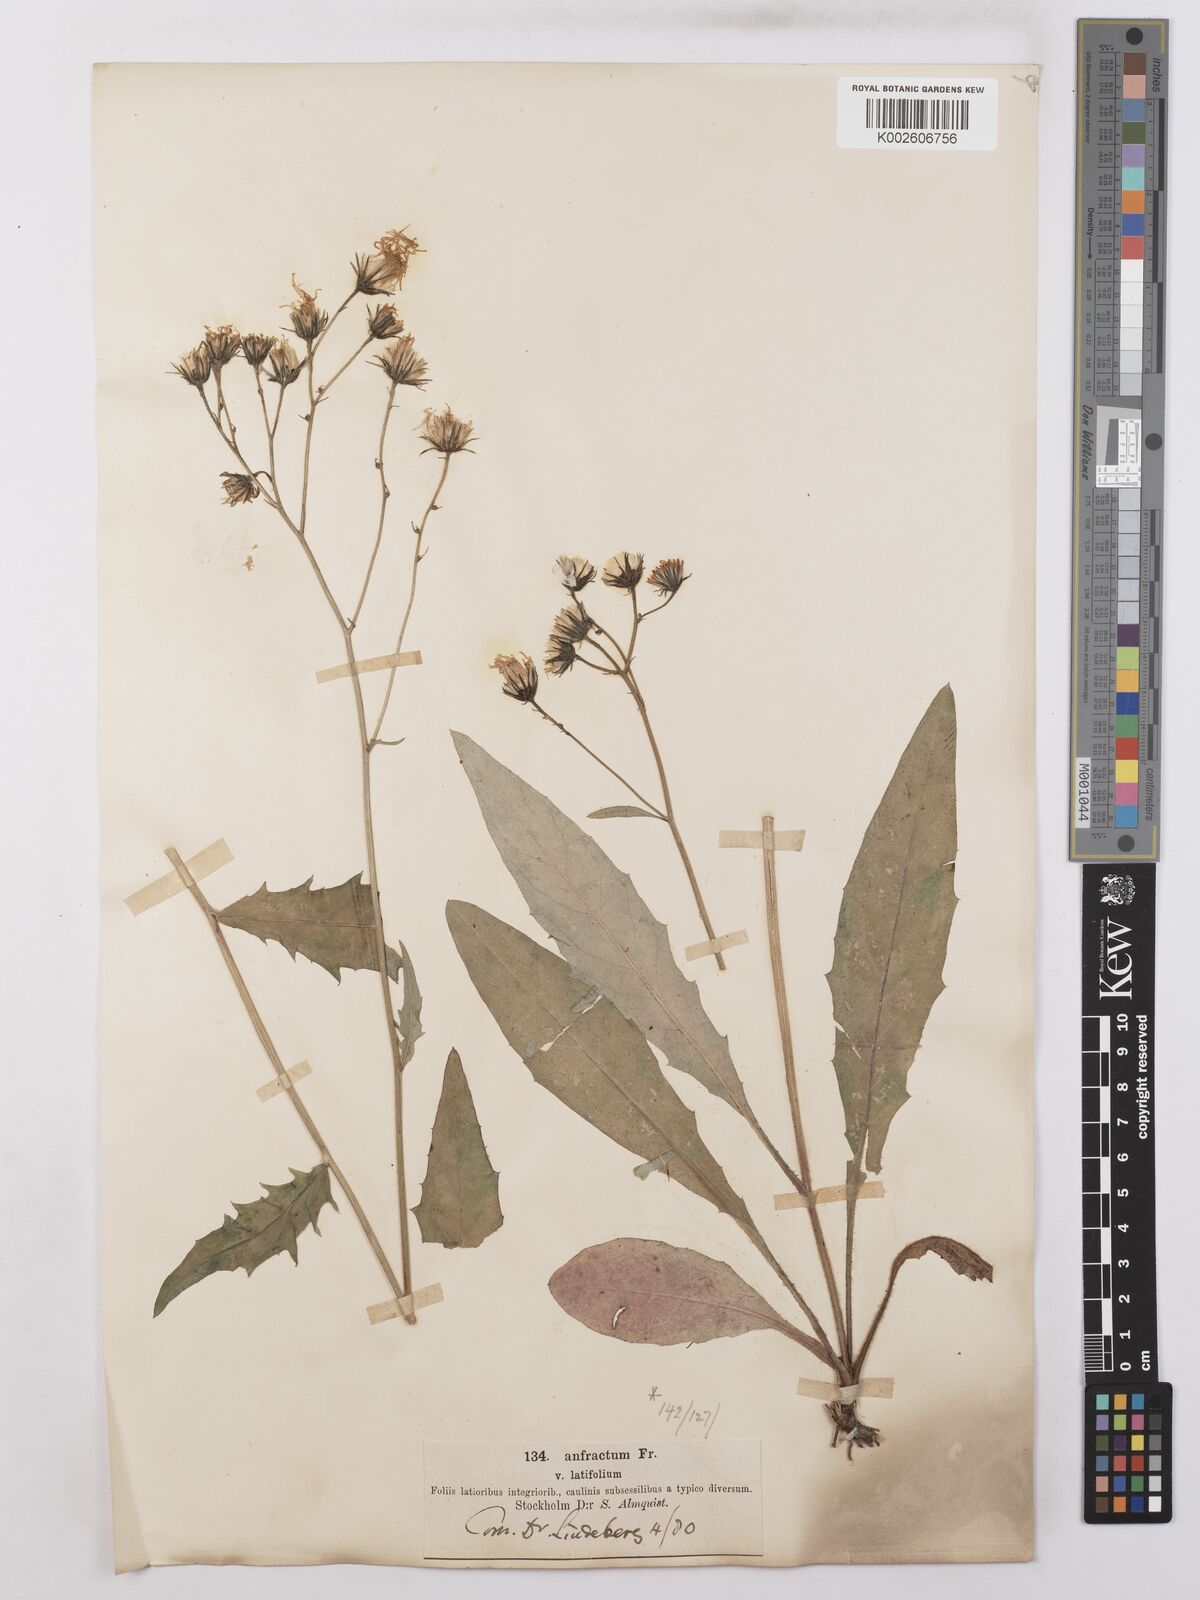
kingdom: Plantae
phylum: Tracheophyta
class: Magnoliopsida
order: Asterales
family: Asteraceae
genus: Hieracium
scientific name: Hieracium lachenalii
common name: Common hawkweed
